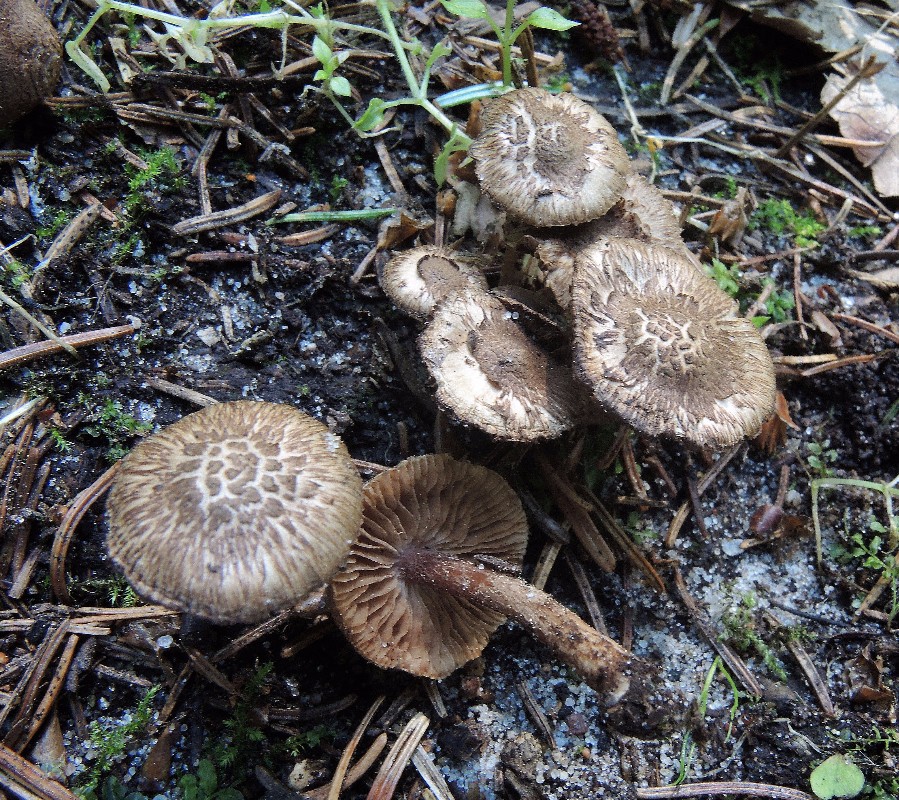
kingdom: Fungi
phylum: Basidiomycota
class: Agaricomycetes
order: Agaricales
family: Inocybaceae
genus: Inocybe
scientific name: Inocybe cincinnata
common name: lillabladet trævlhat
